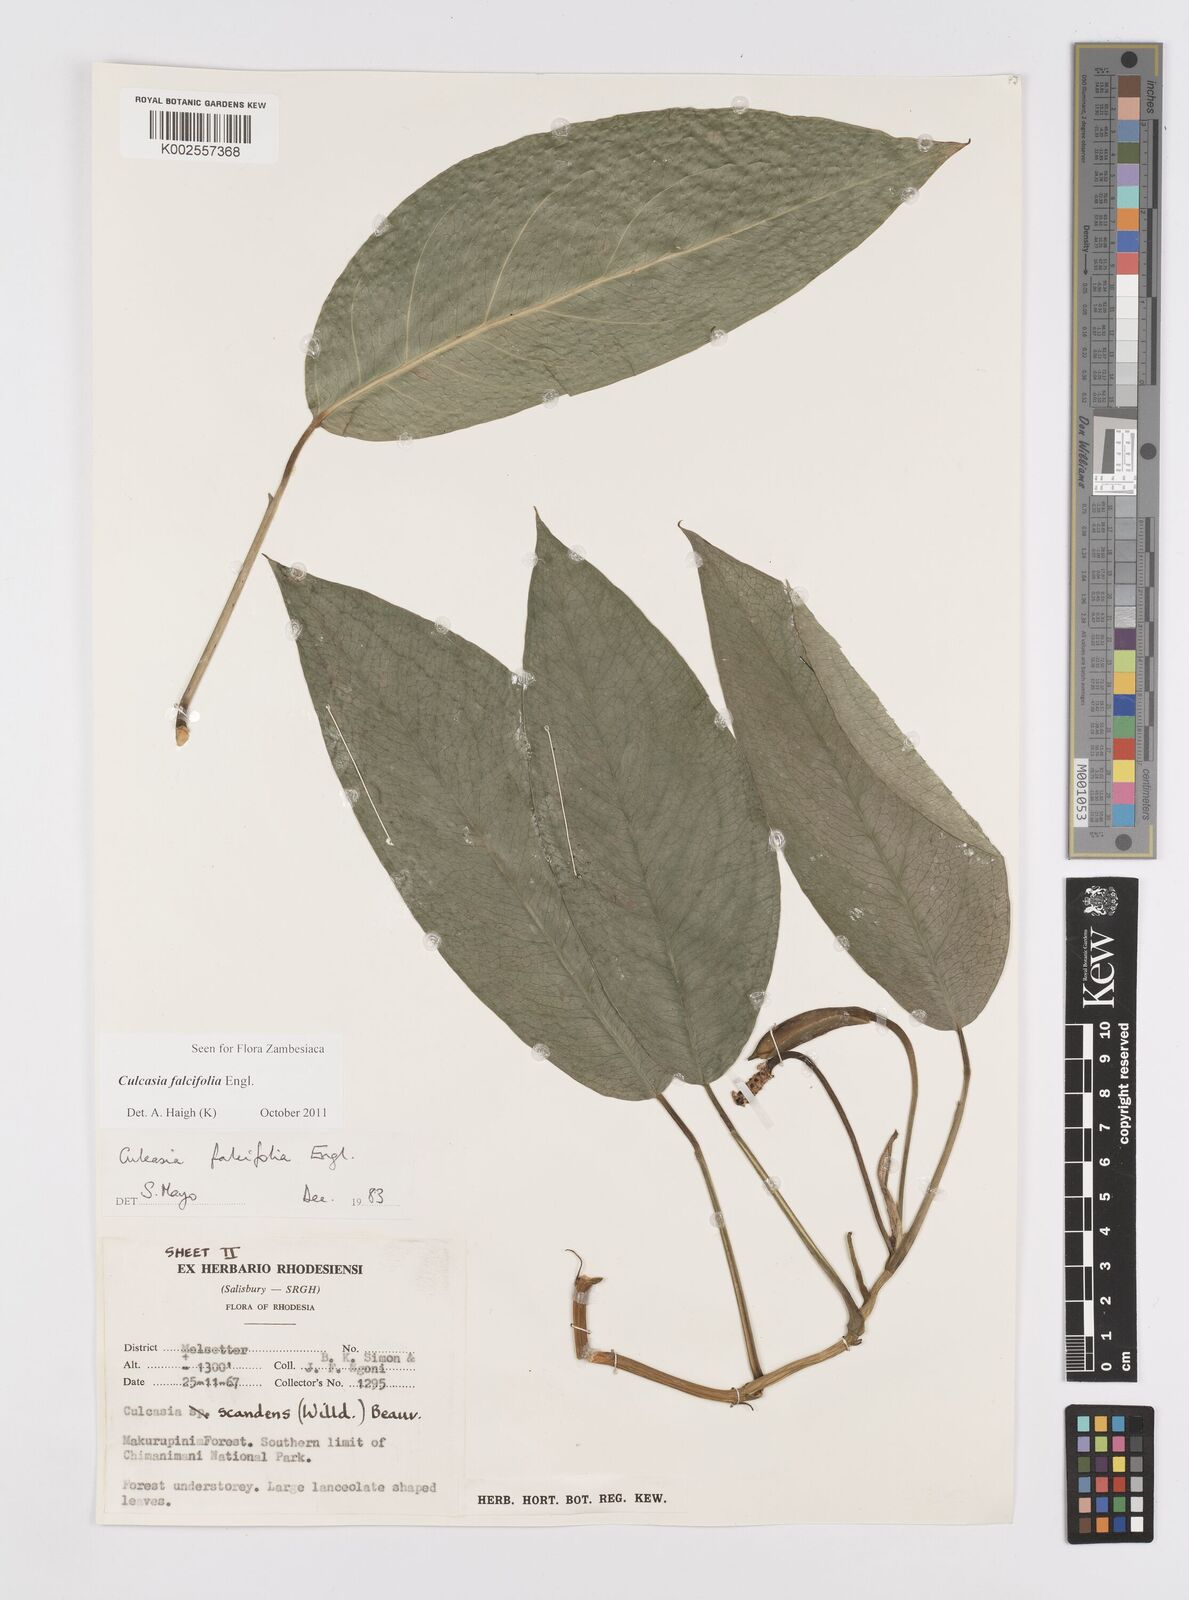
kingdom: Plantae
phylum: Tracheophyta
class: Liliopsida
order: Alismatales
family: Araceae
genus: Culcasia
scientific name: Culcasia falcifolia
